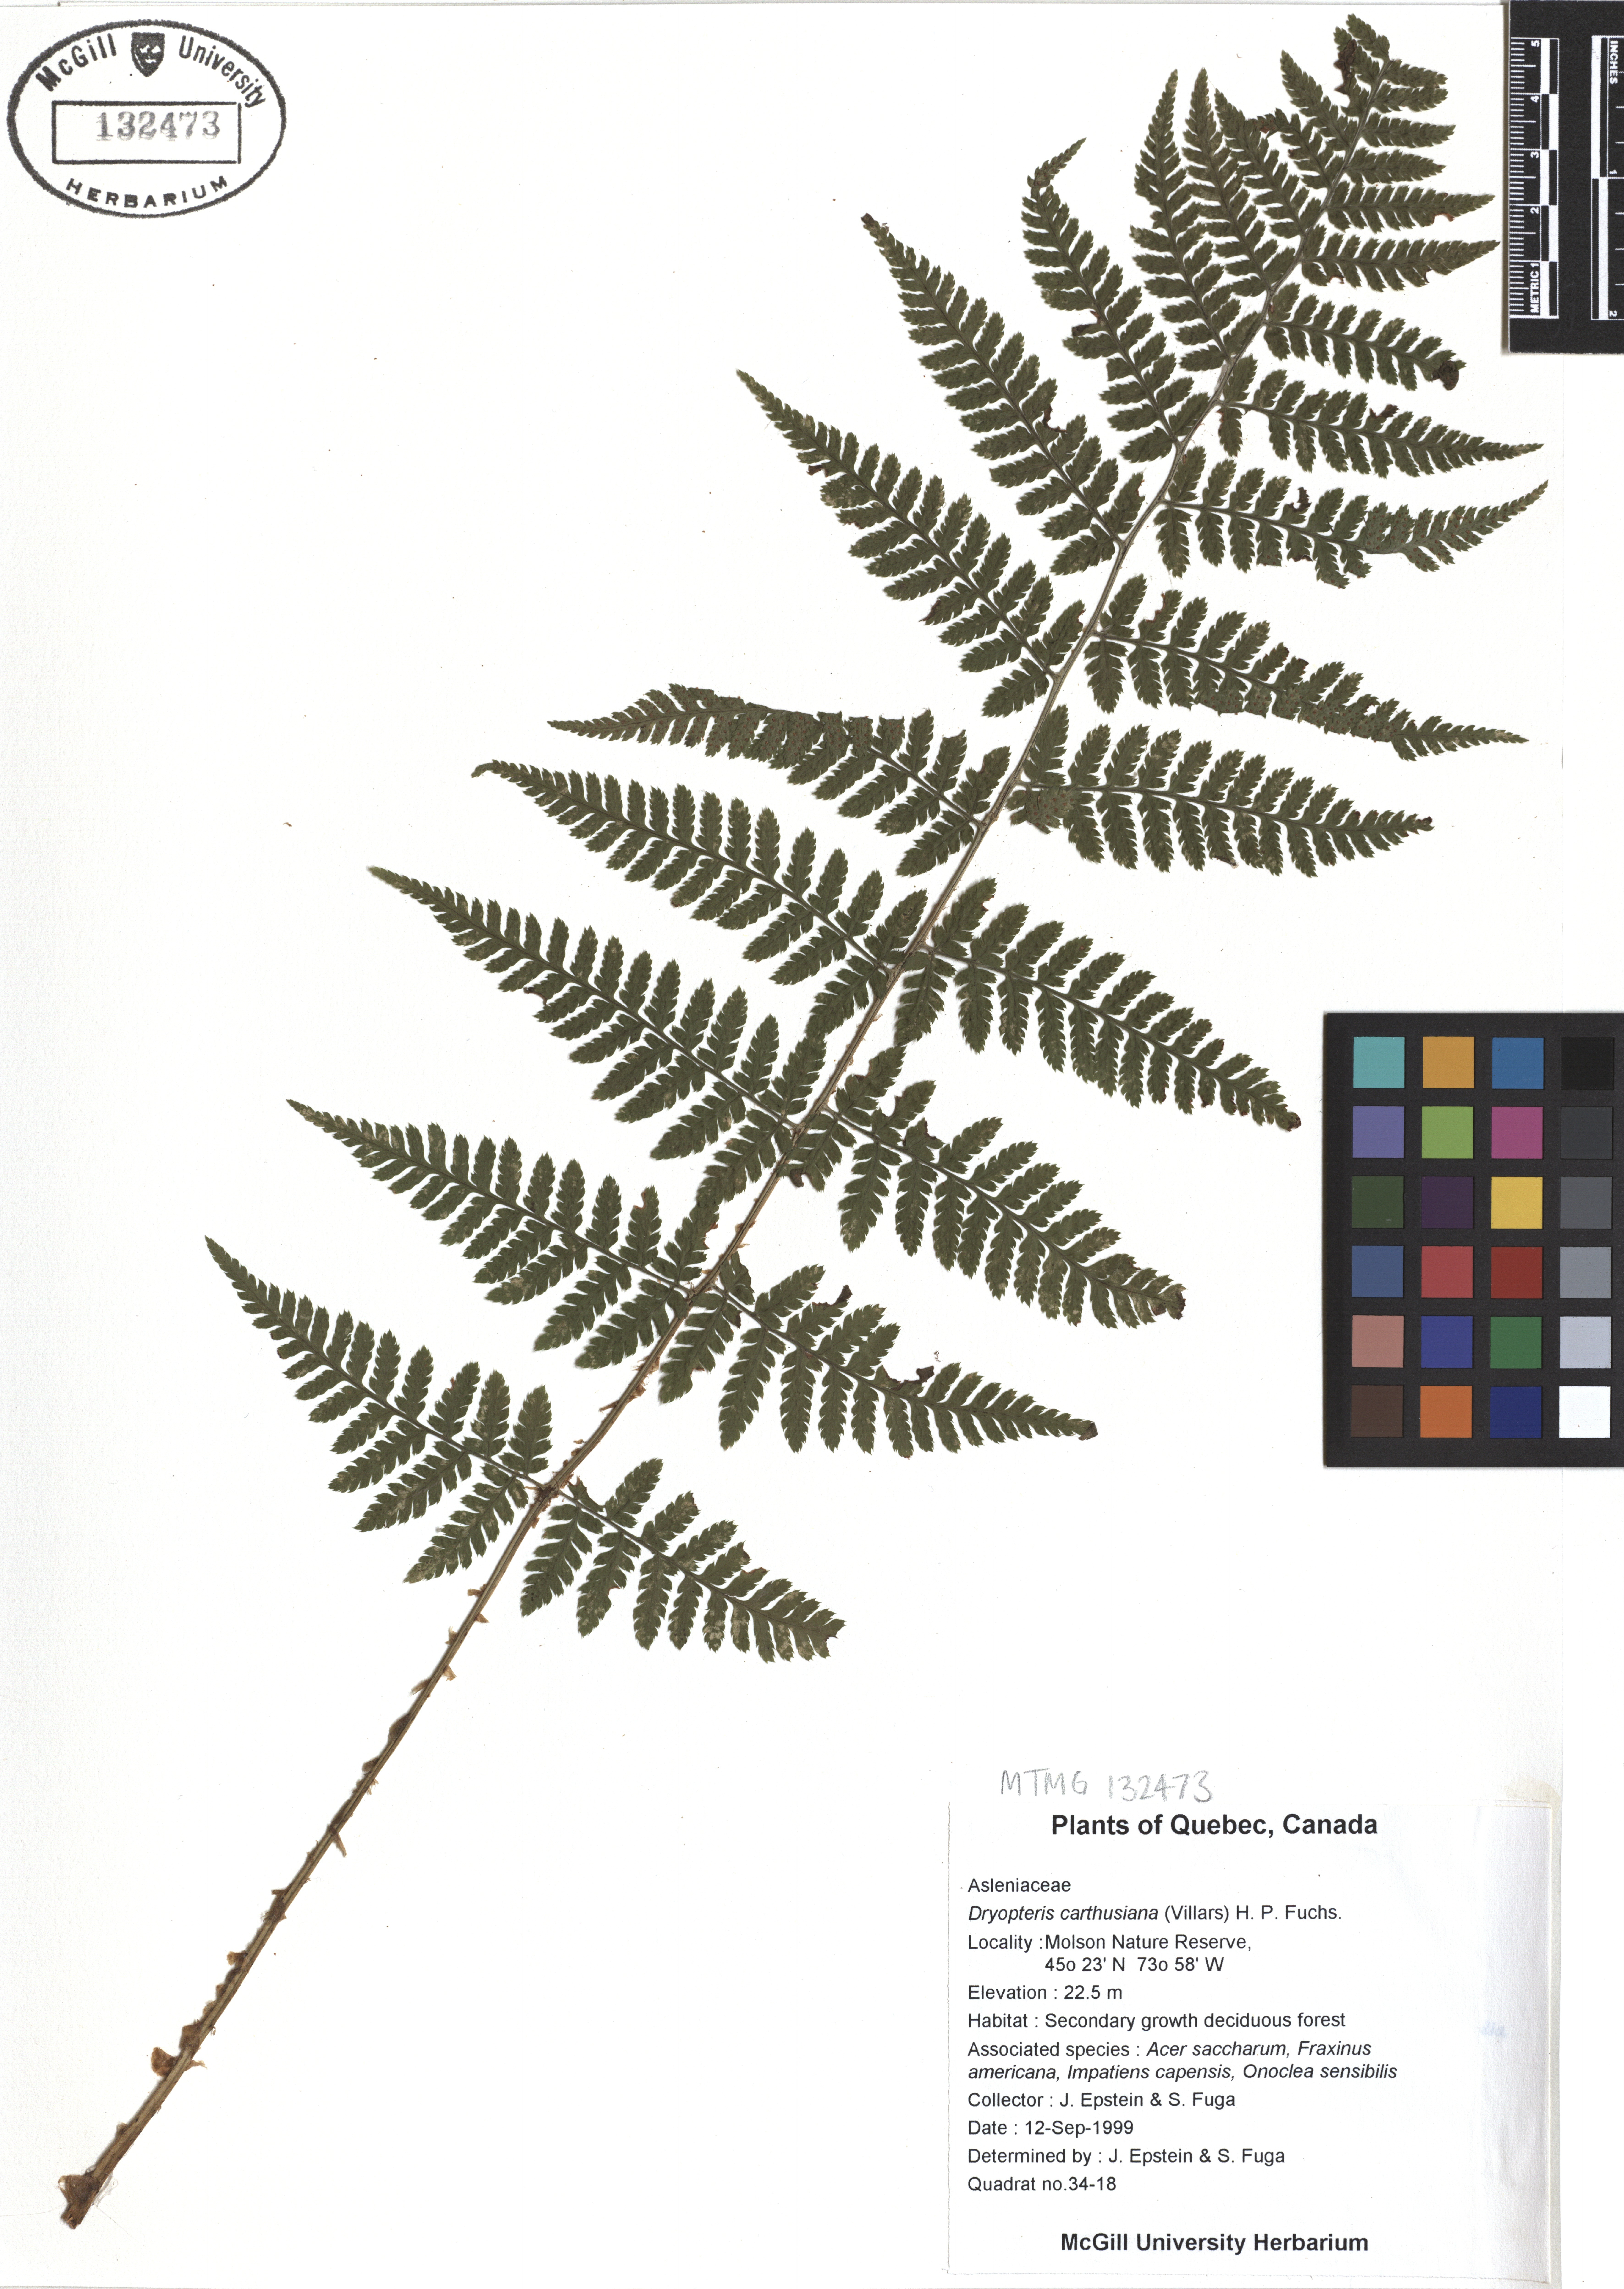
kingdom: Plantae
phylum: Tracheophyta
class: Polypodiopsida
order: Polypodiales
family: Dryopteridaceae
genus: Dryopteris
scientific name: Dryopteris carthusiana
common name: Narrow buckler-fern
